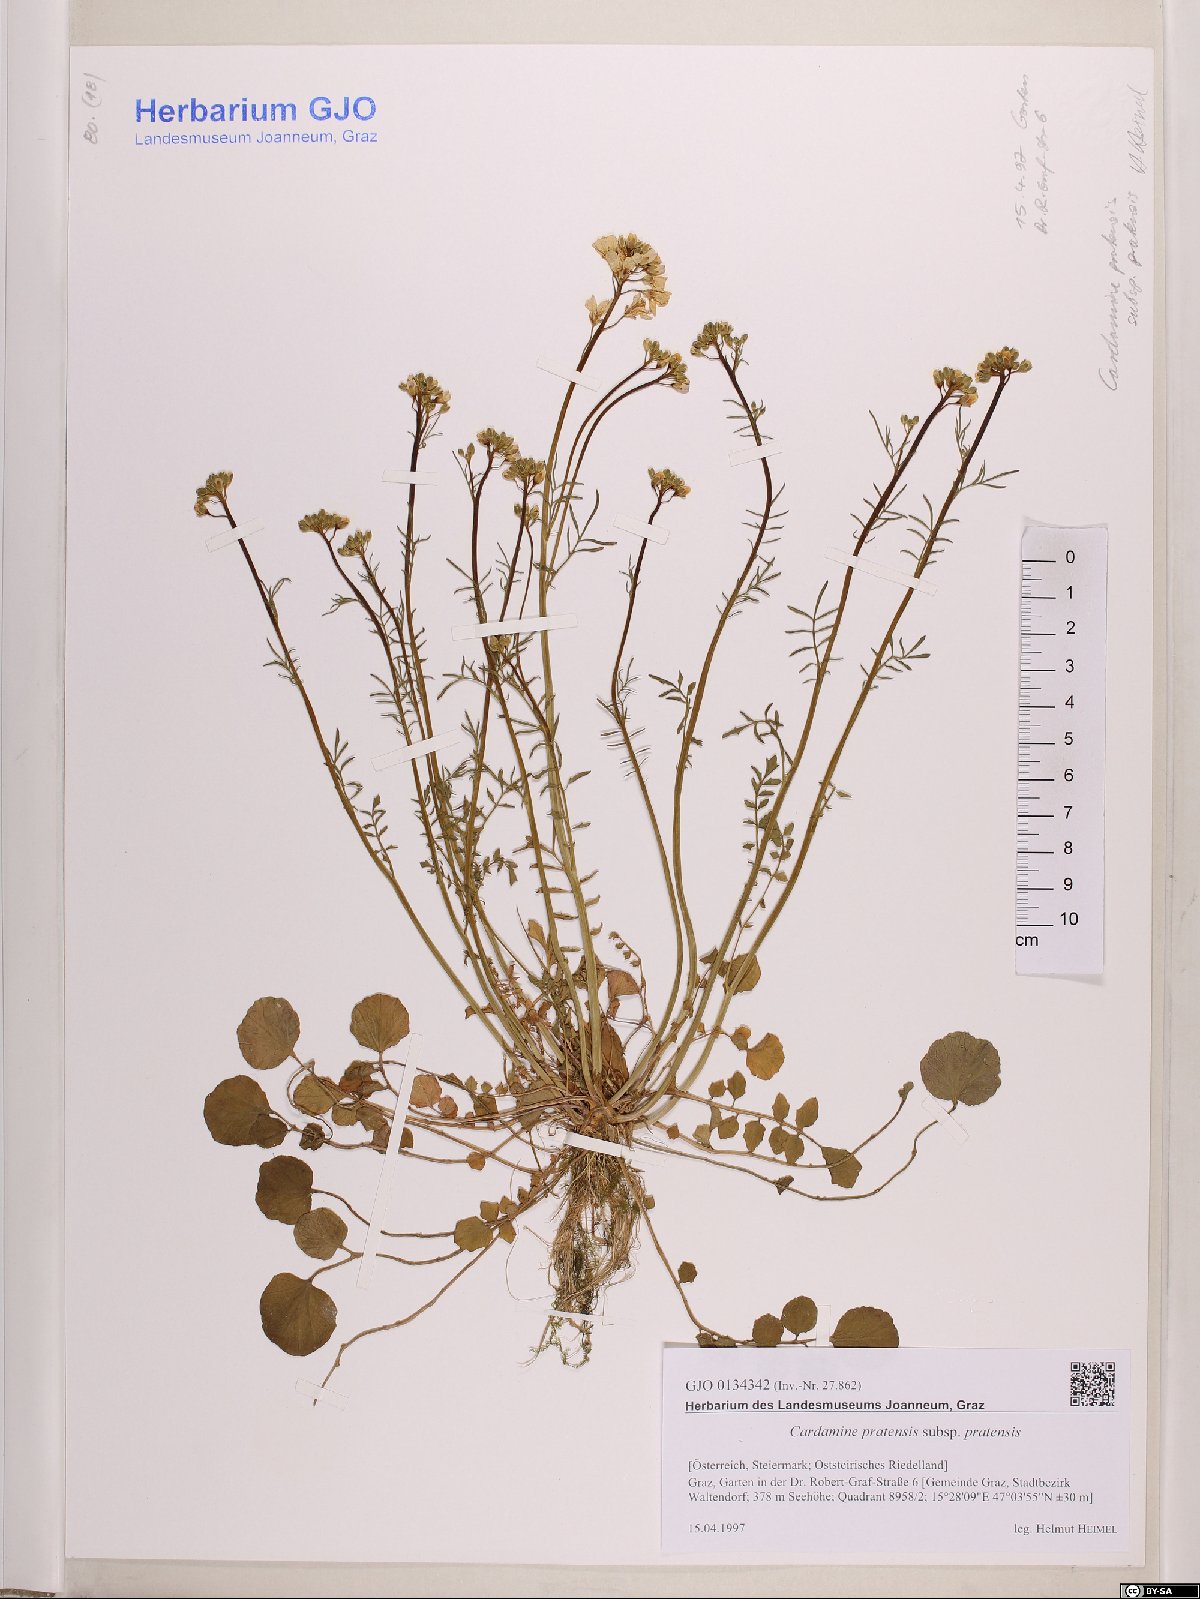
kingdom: Plantae
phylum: Tracheophyta
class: Magnoliopsida
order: Brassicales
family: Brassicaceae
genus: Cardamine
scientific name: Cardamine pratensis
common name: Cuckoo flower
